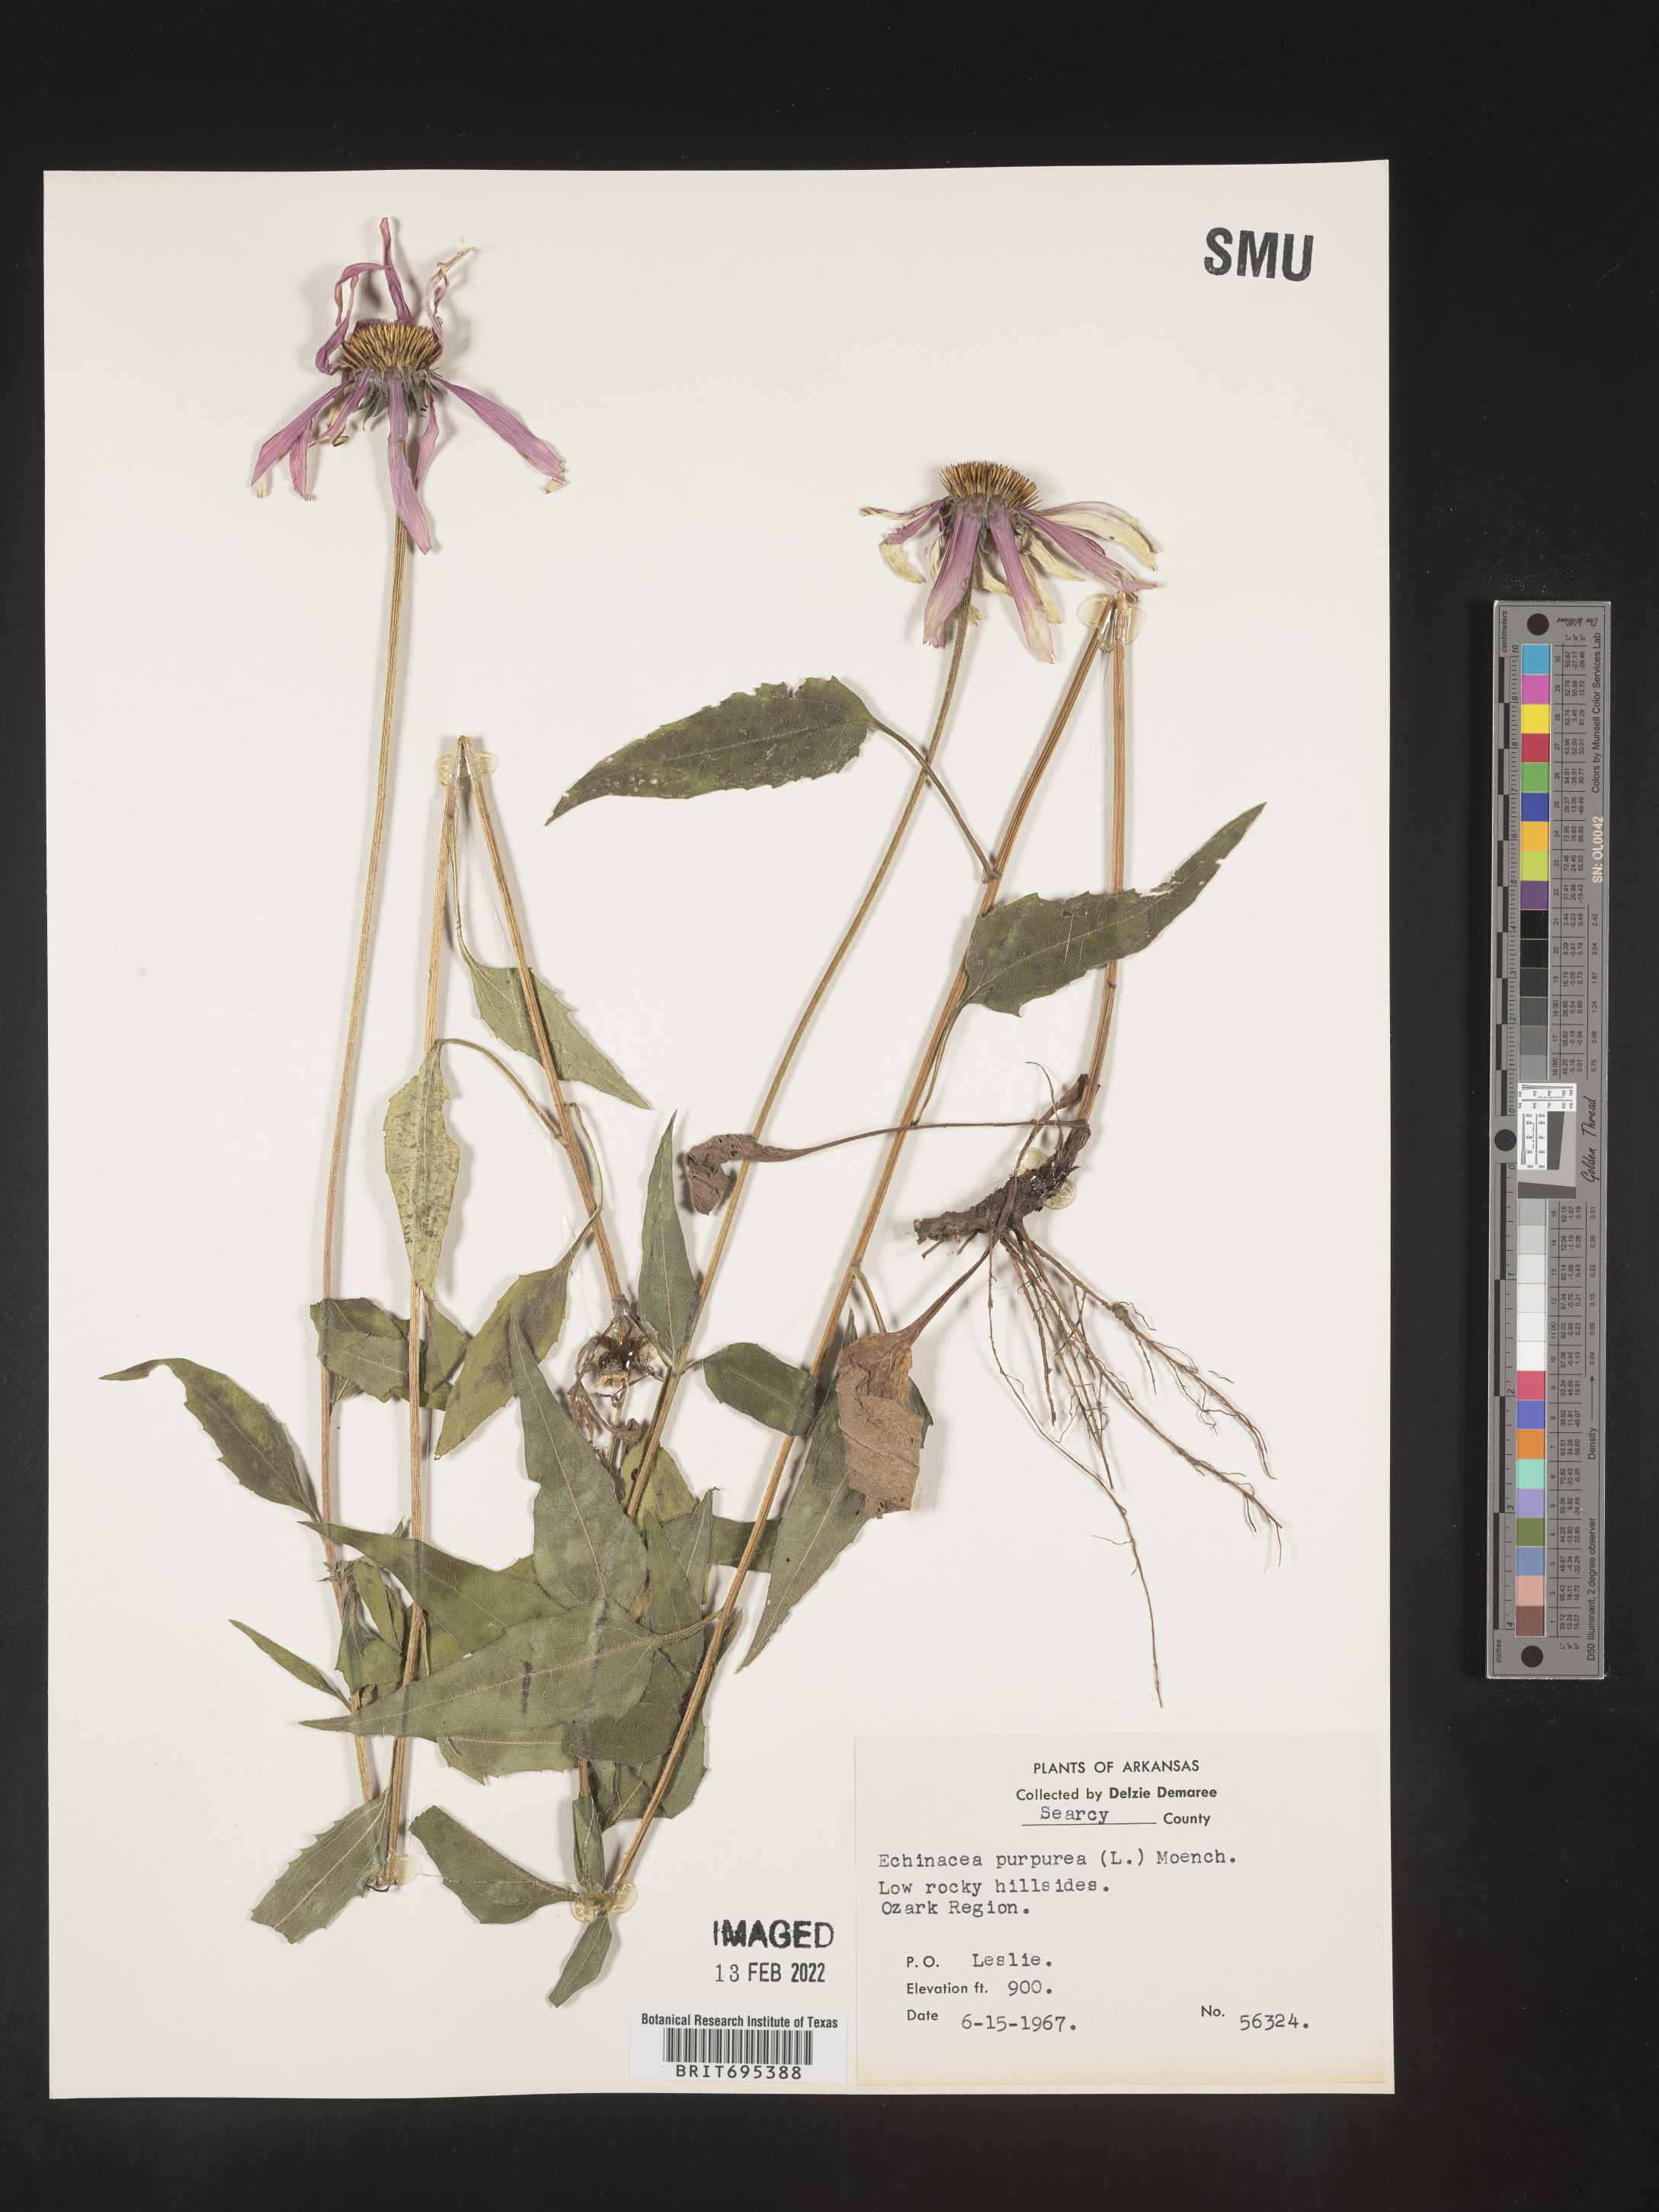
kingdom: Plantae
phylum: Tracheophyta
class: Magnoliopsida
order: Asterales
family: Asteraceae
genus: Echinacea
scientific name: Echinacea purpurea
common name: Broad-leaved purple coneflower
